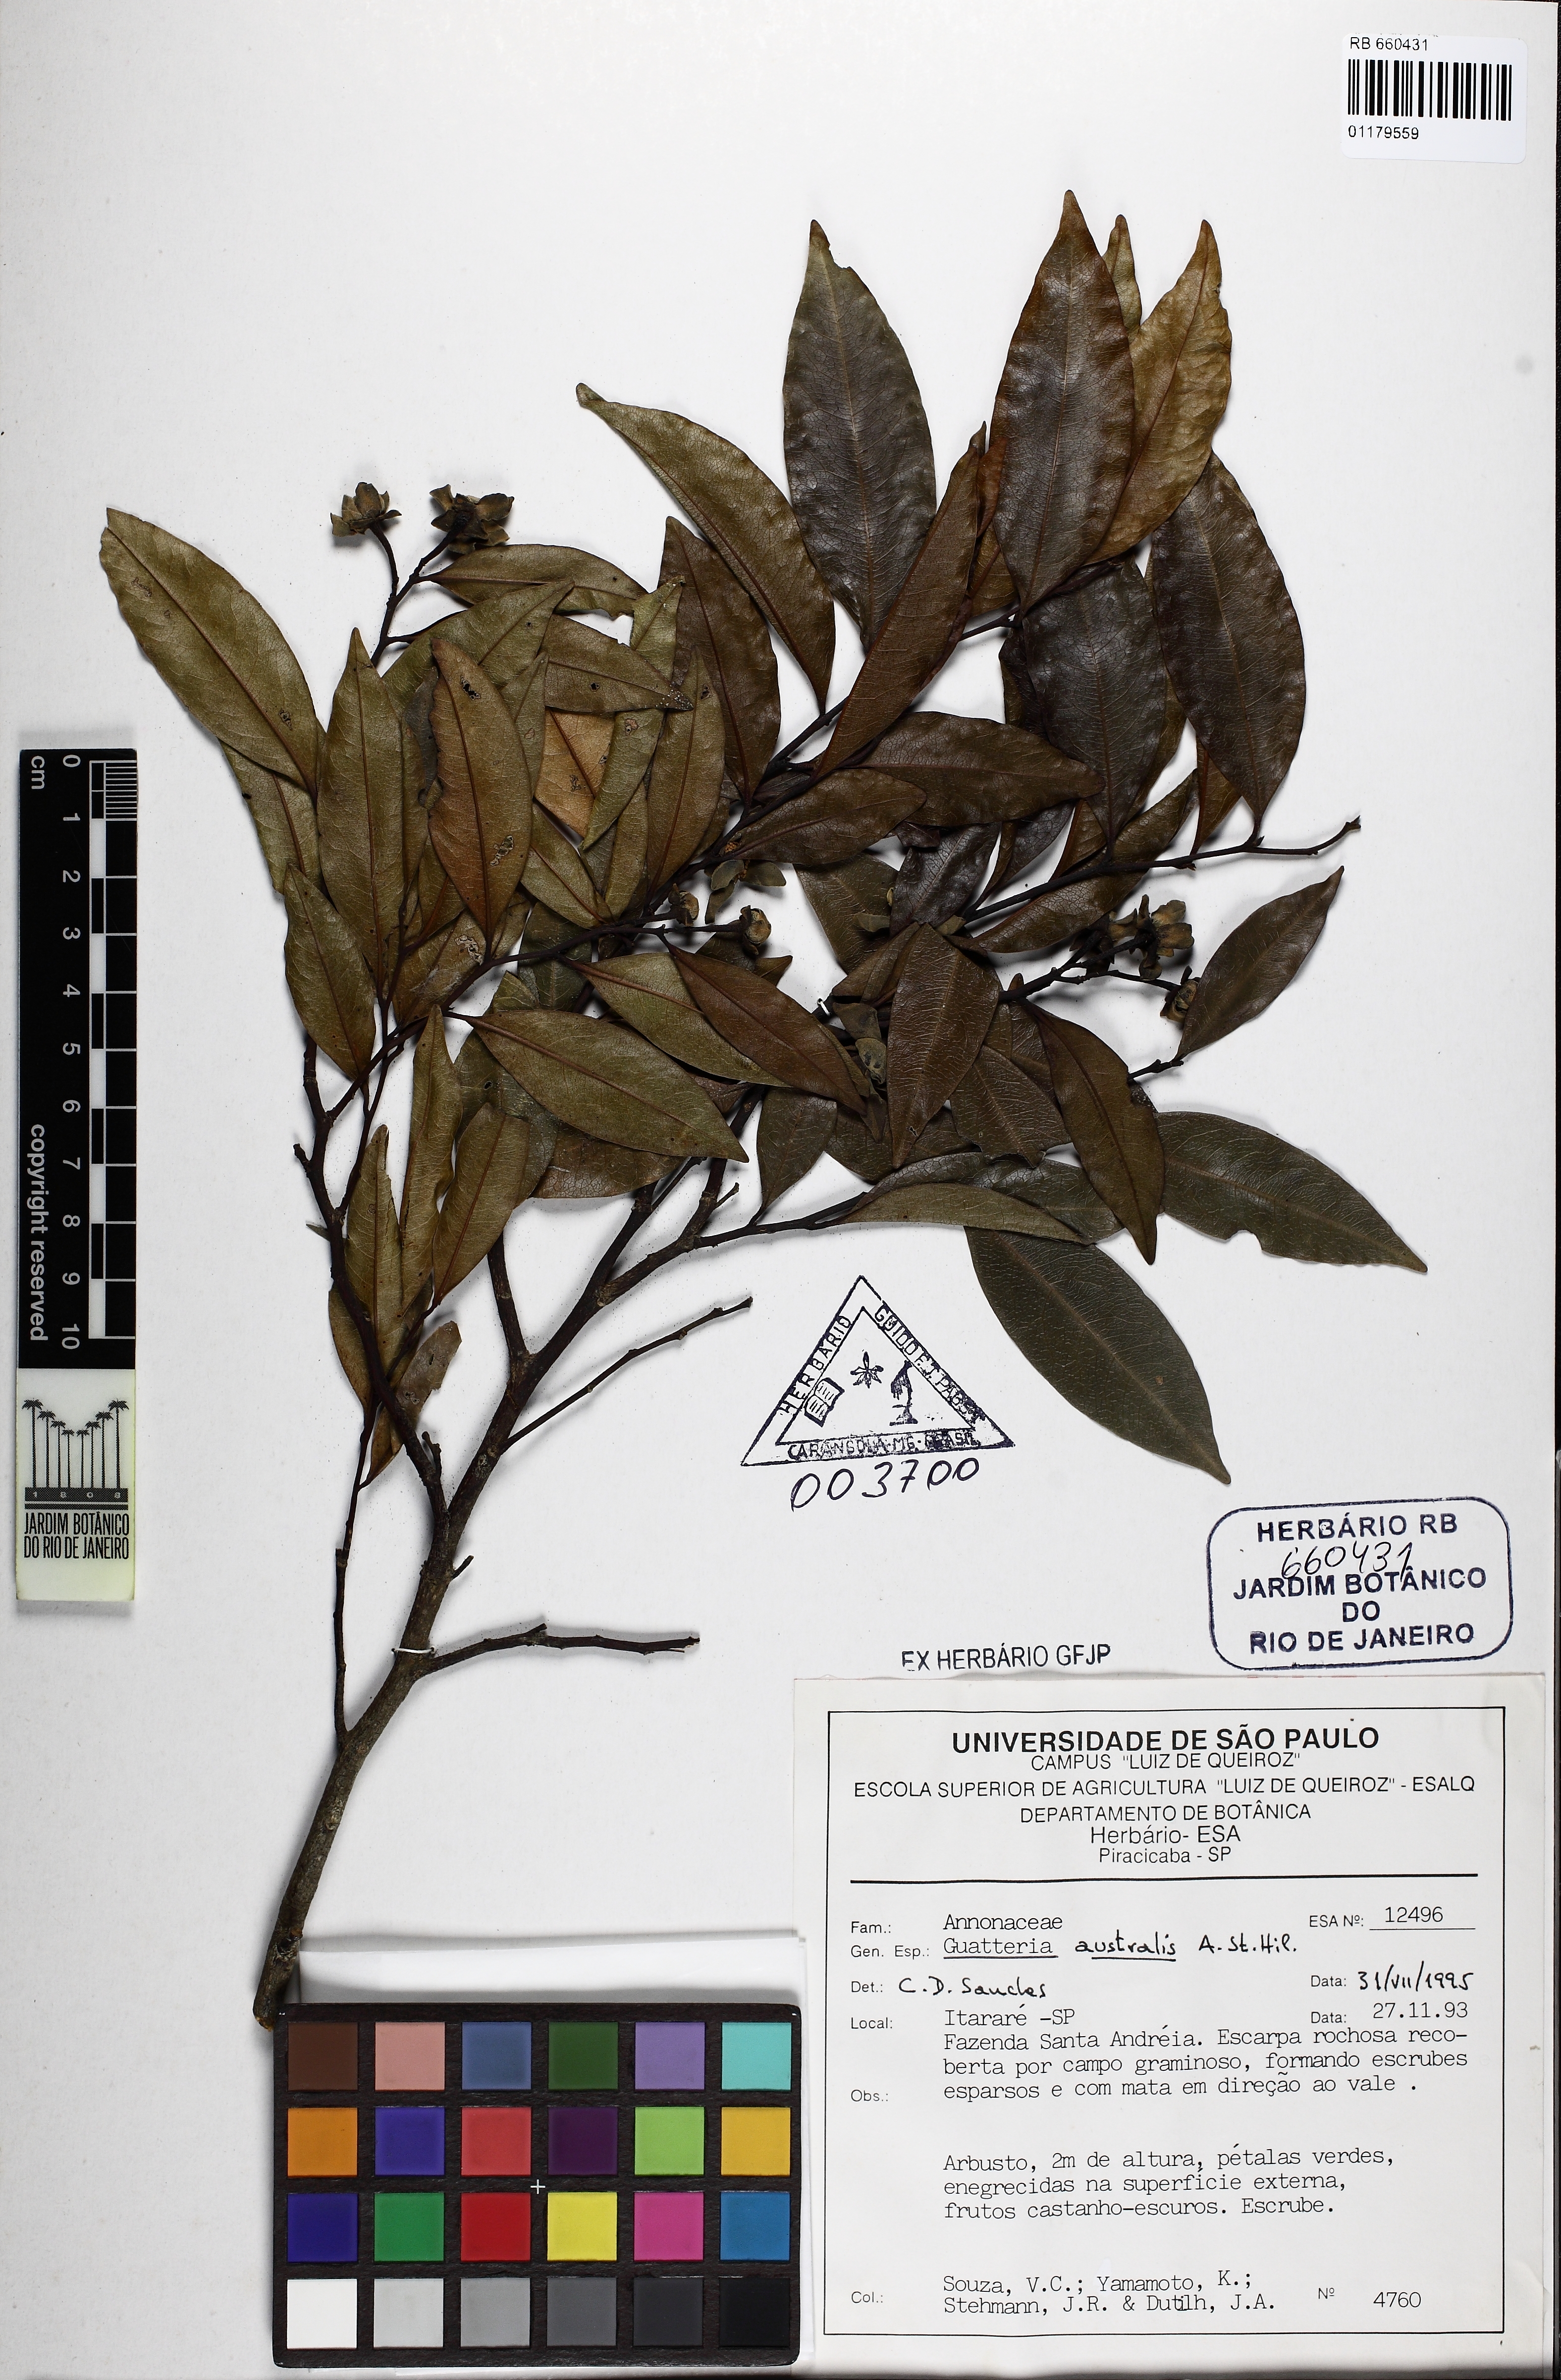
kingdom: Plantae
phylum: Tracheophyta
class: Magnoliopsida
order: Magnoliales
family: Annonaceae
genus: Guatteria
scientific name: Guatteria australis
